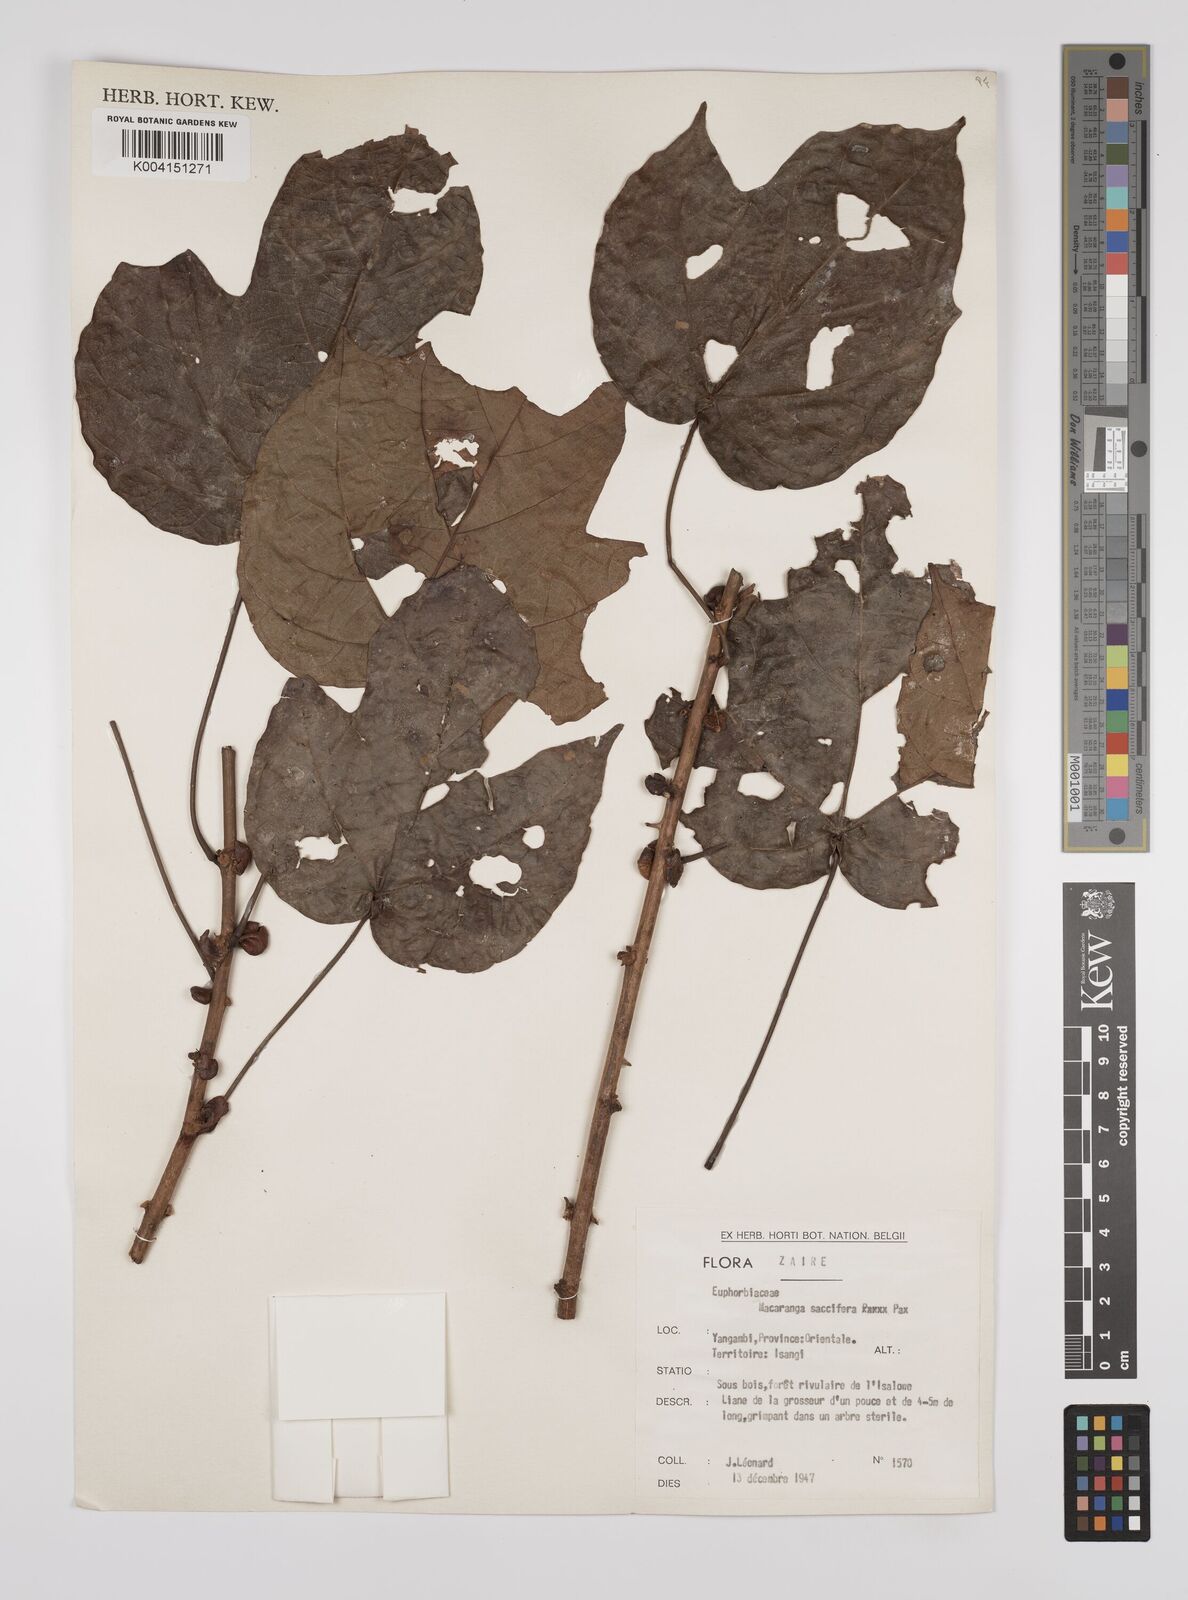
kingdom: Plantae
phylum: Tracheophyta
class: Magnoliopsida
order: Malpighiales
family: Euphorbiaceae
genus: Macaranga
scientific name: Macaranga saccifera
